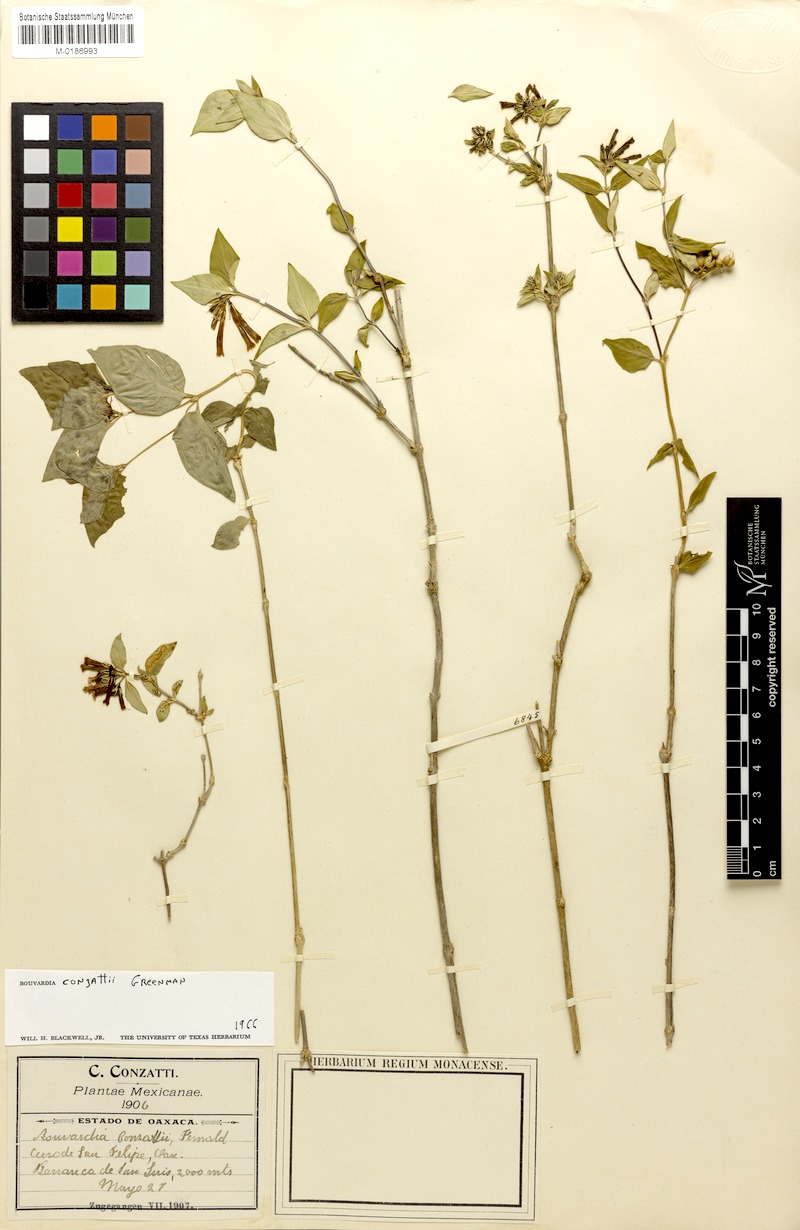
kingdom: Plantae
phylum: Tracheophyta
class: Magnoliopsida
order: Gentianales
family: Rubiaceae
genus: Bouvardia
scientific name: Bouvardia conzattii
